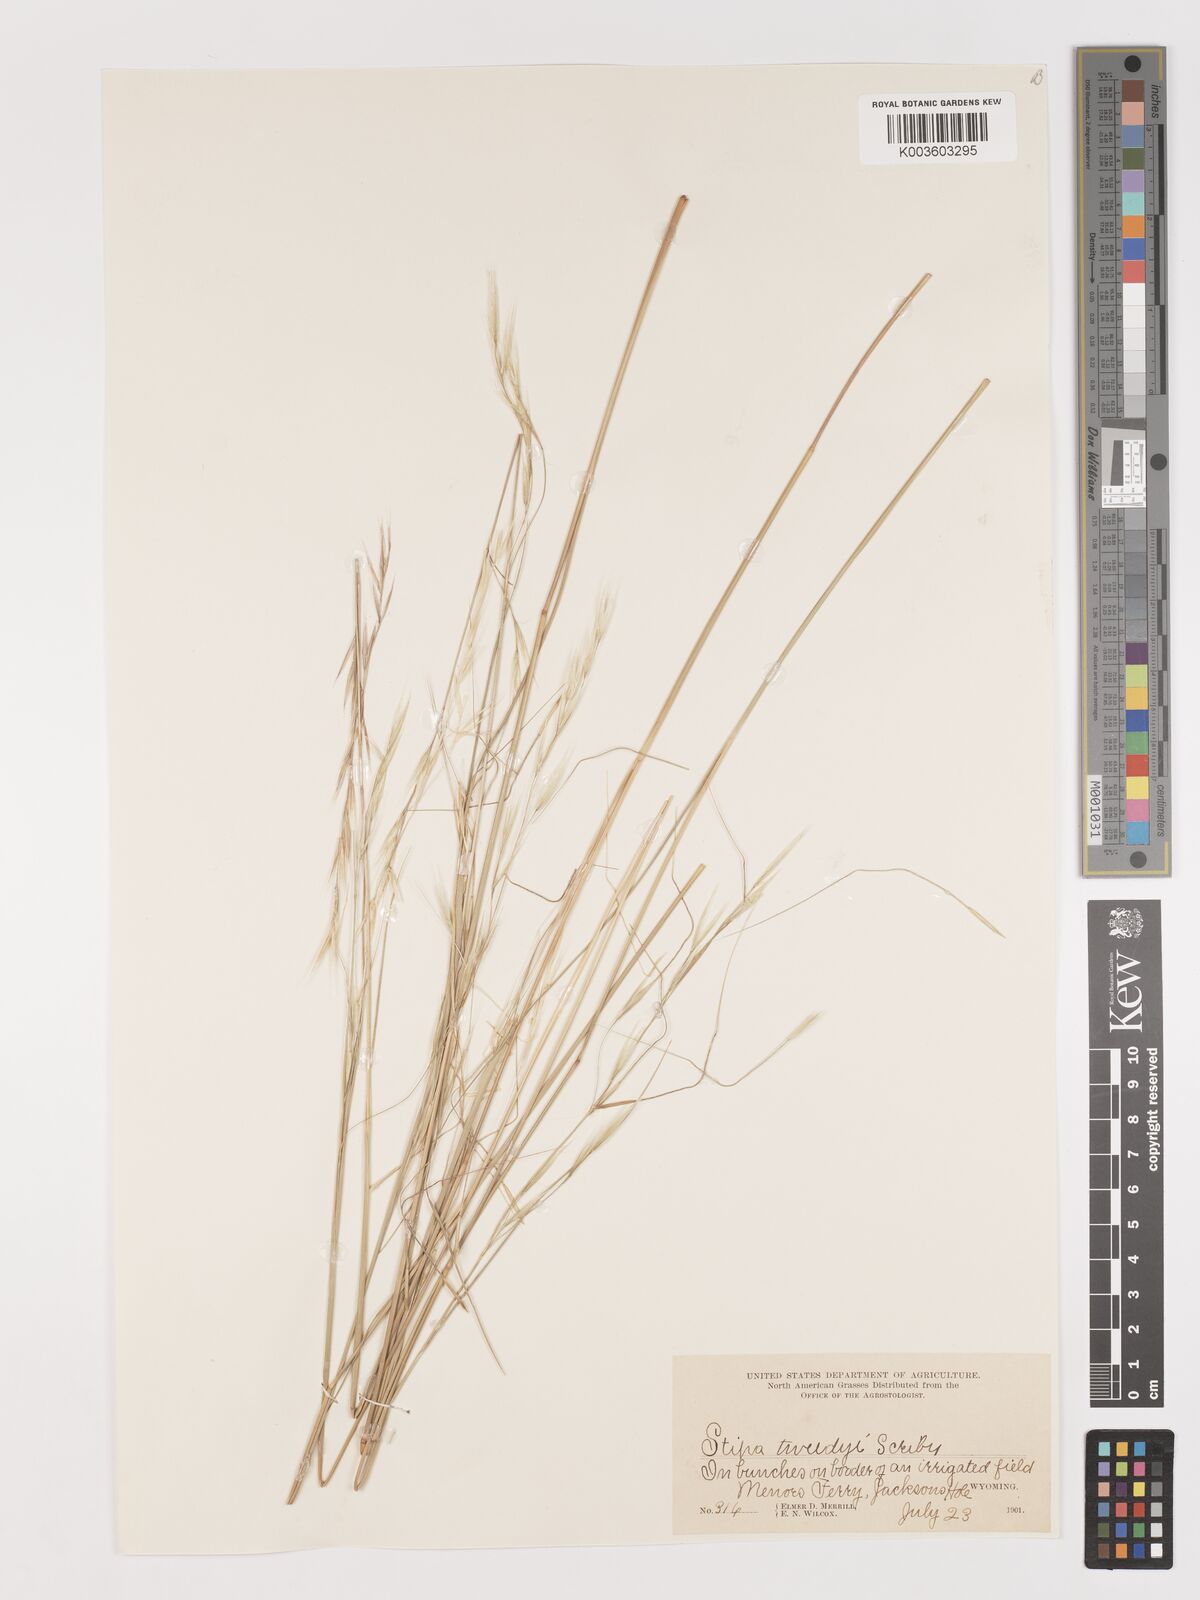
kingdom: Plantae
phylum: Tracheophyta
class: Liliopsida
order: Poales
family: Poaceae
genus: Stipa
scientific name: Stipa
